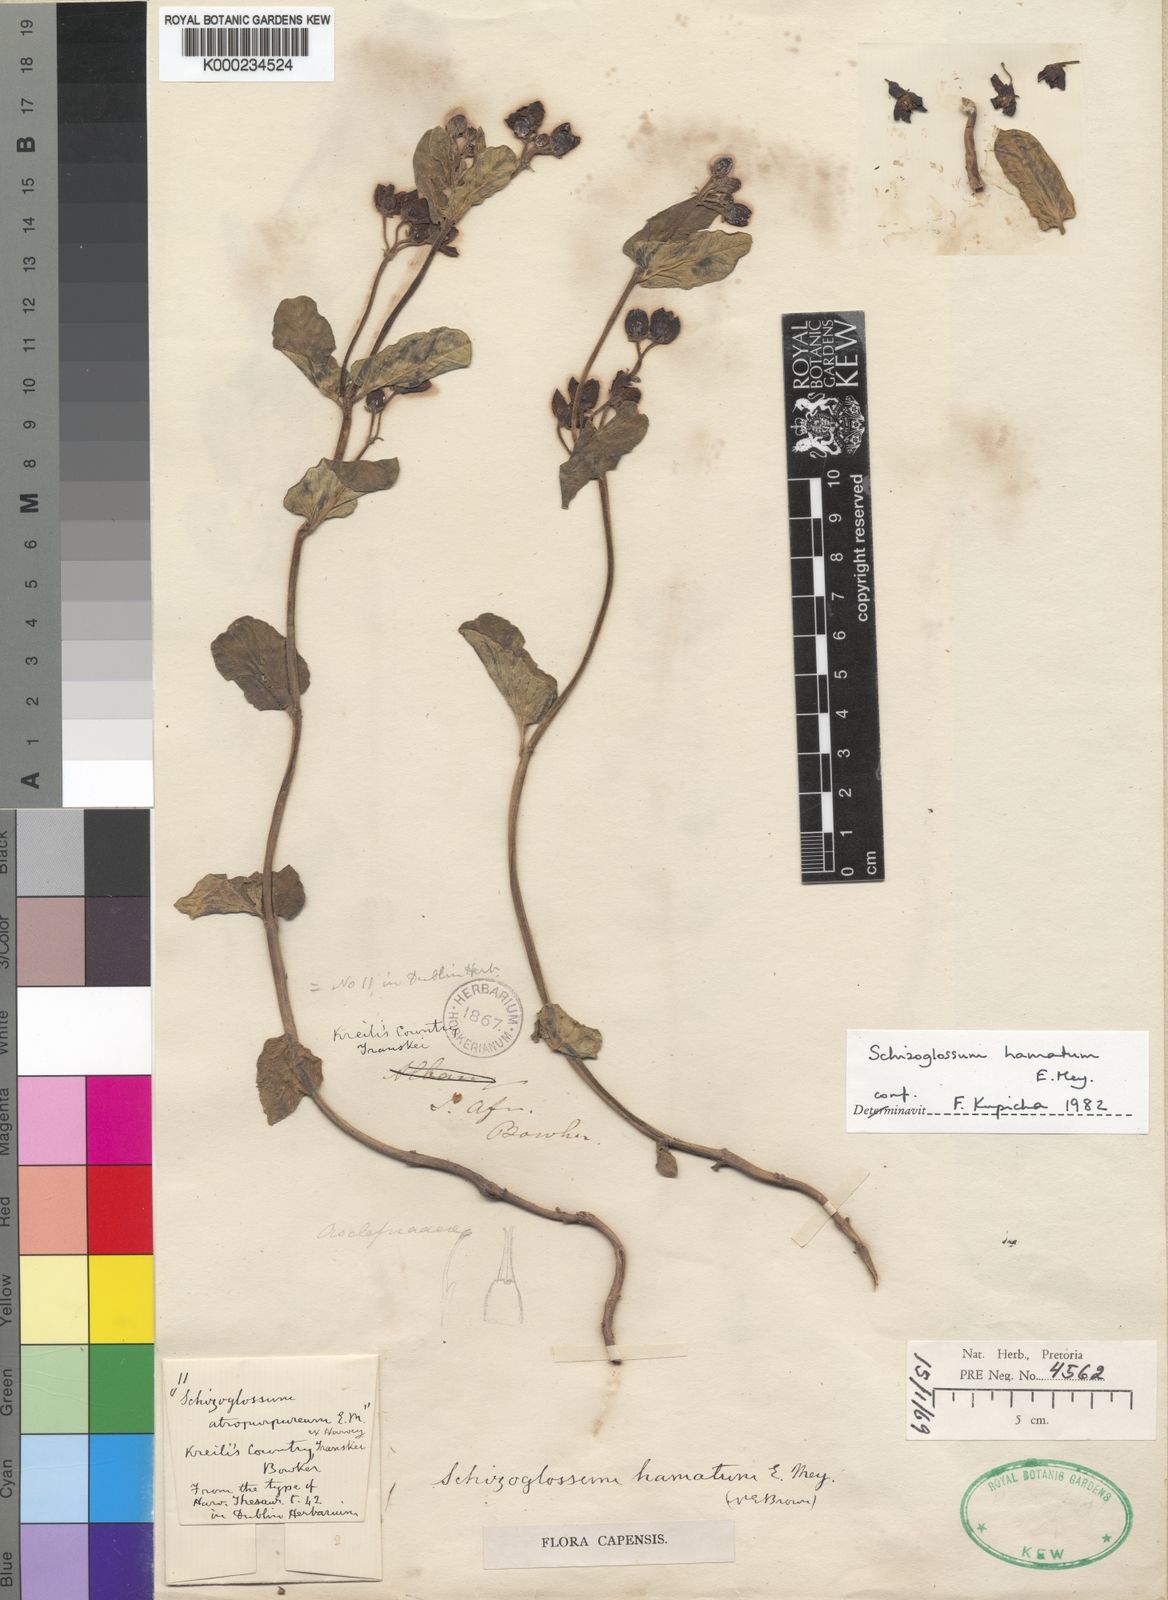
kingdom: Plantae
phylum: Tracheophyta
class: Magnoliopsida
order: Gentianales
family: Apocynaceae
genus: Schizoglossum
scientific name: Schizoglossum hamatum
